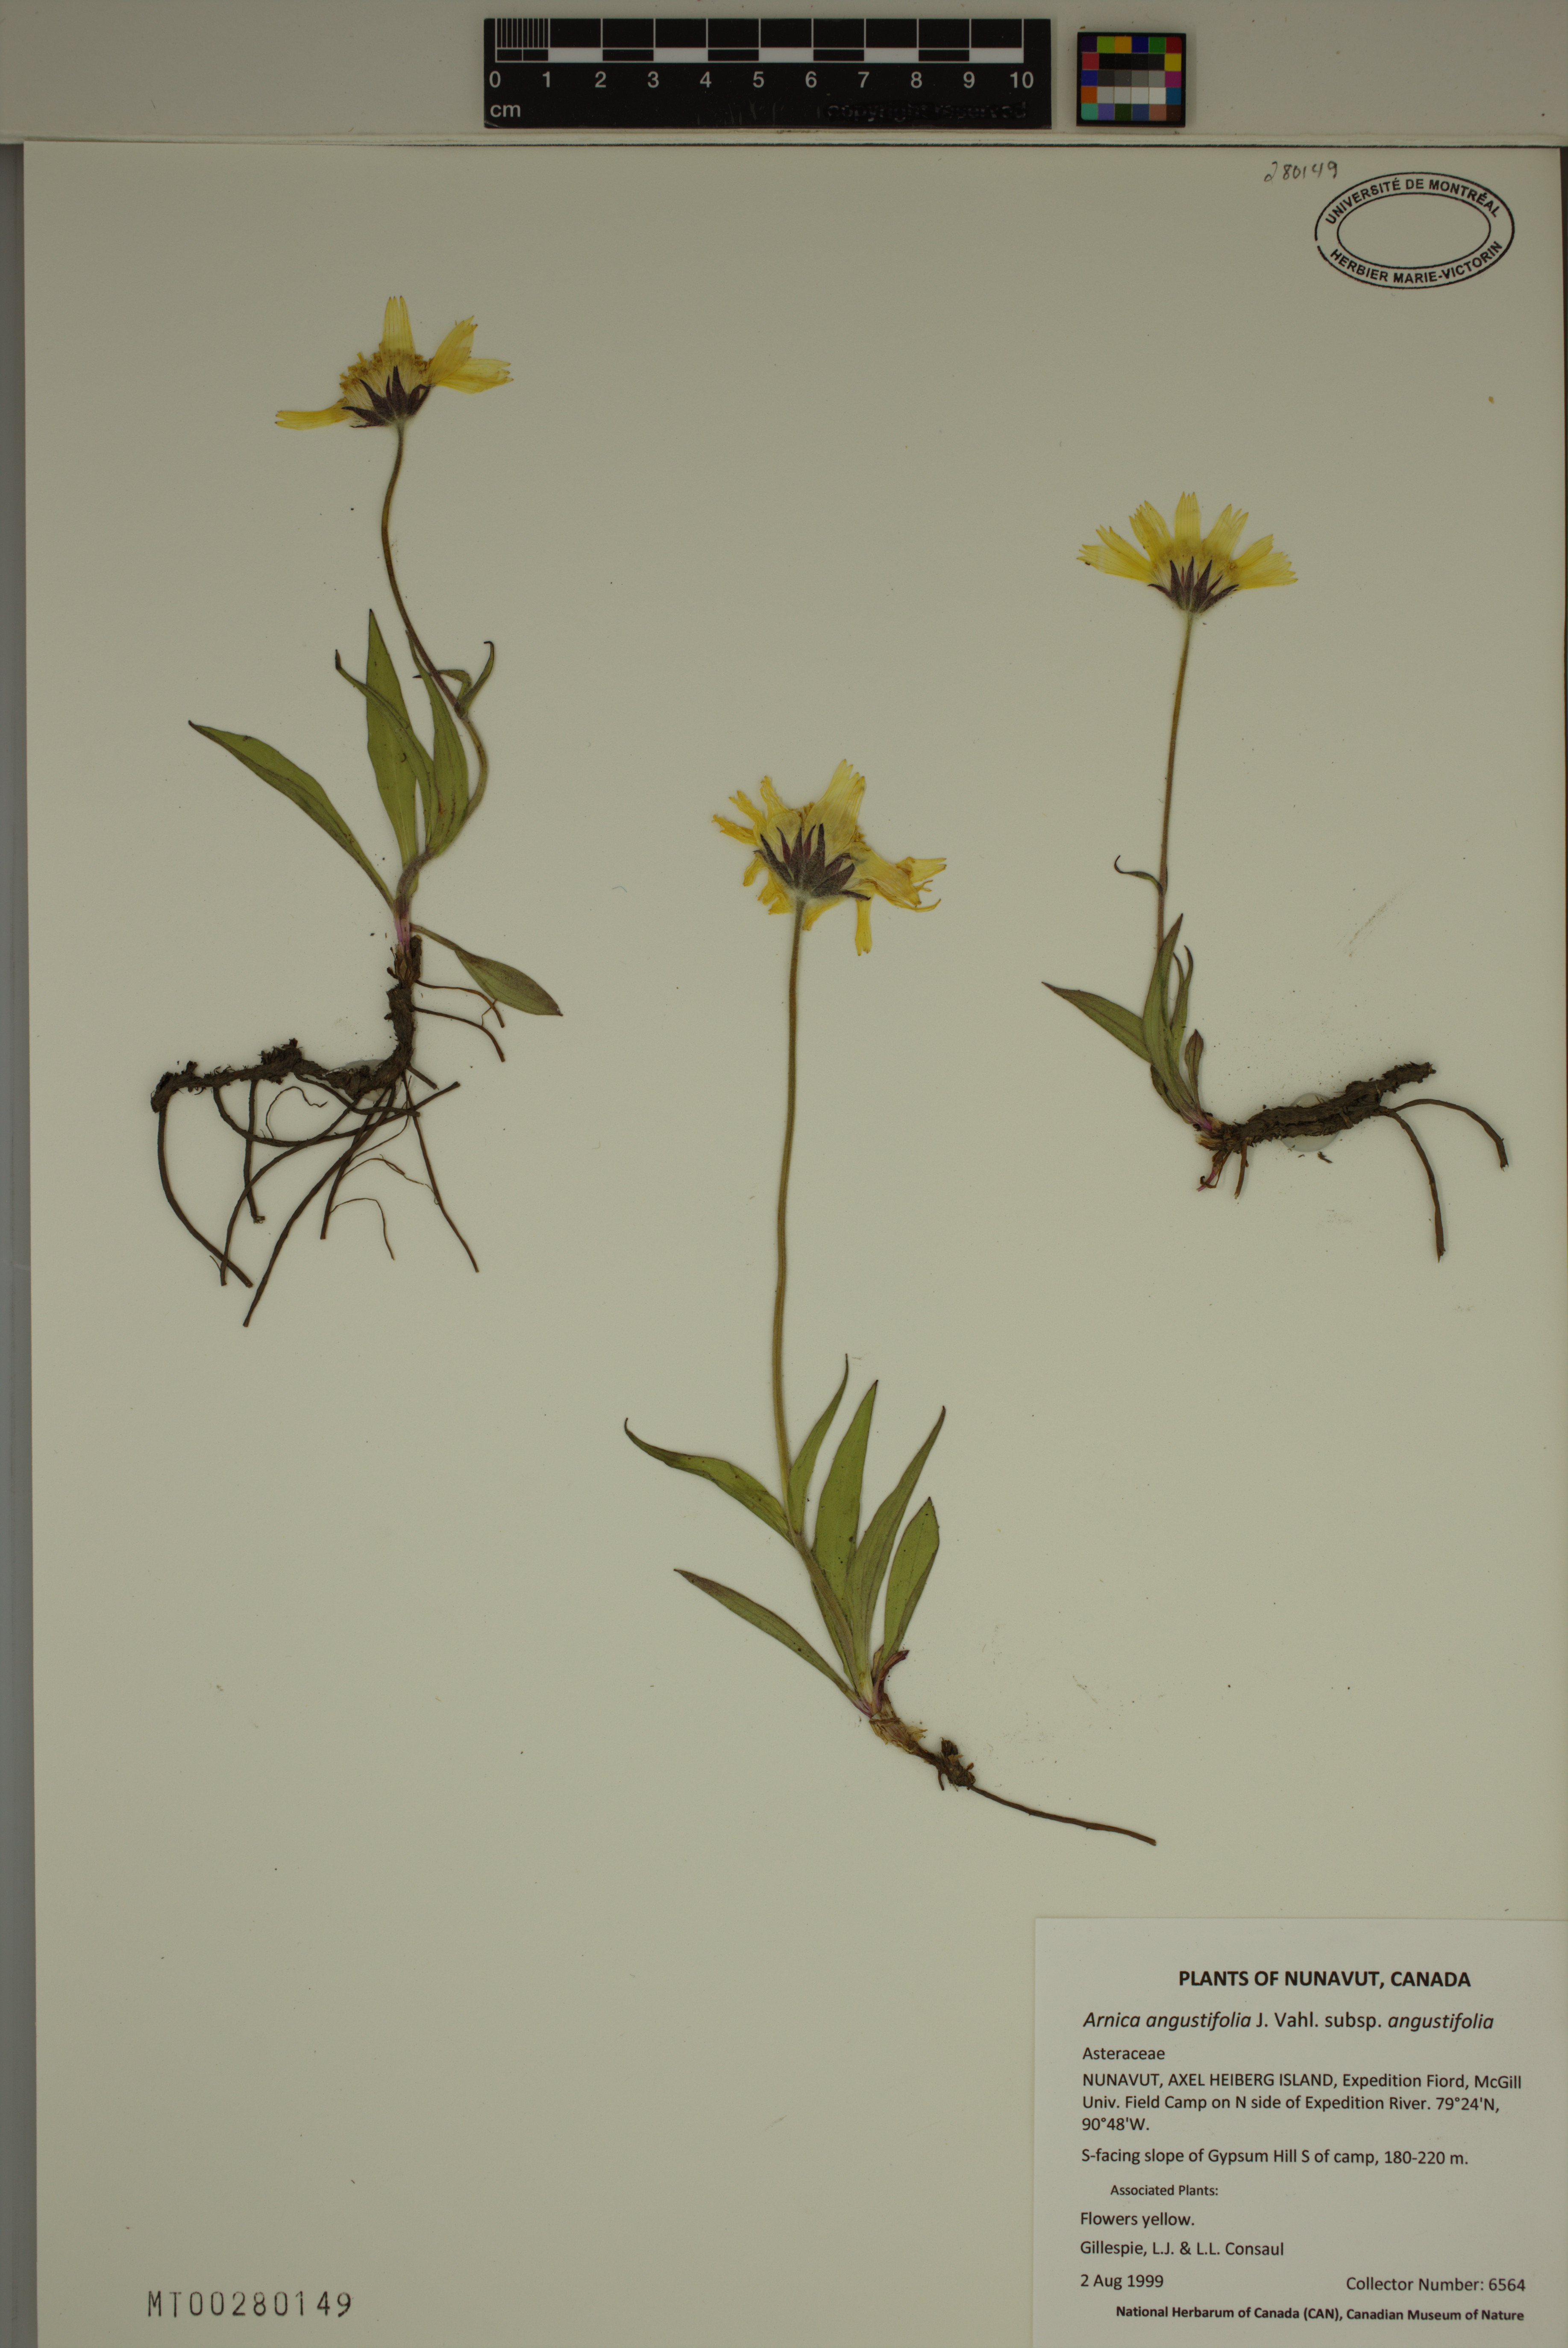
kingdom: Plantae
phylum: Tracheophyta
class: Magnoliopsida
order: Asterales
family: Asteraceae
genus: Arnica
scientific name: Arnica angustifolia
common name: Arctic arnica
